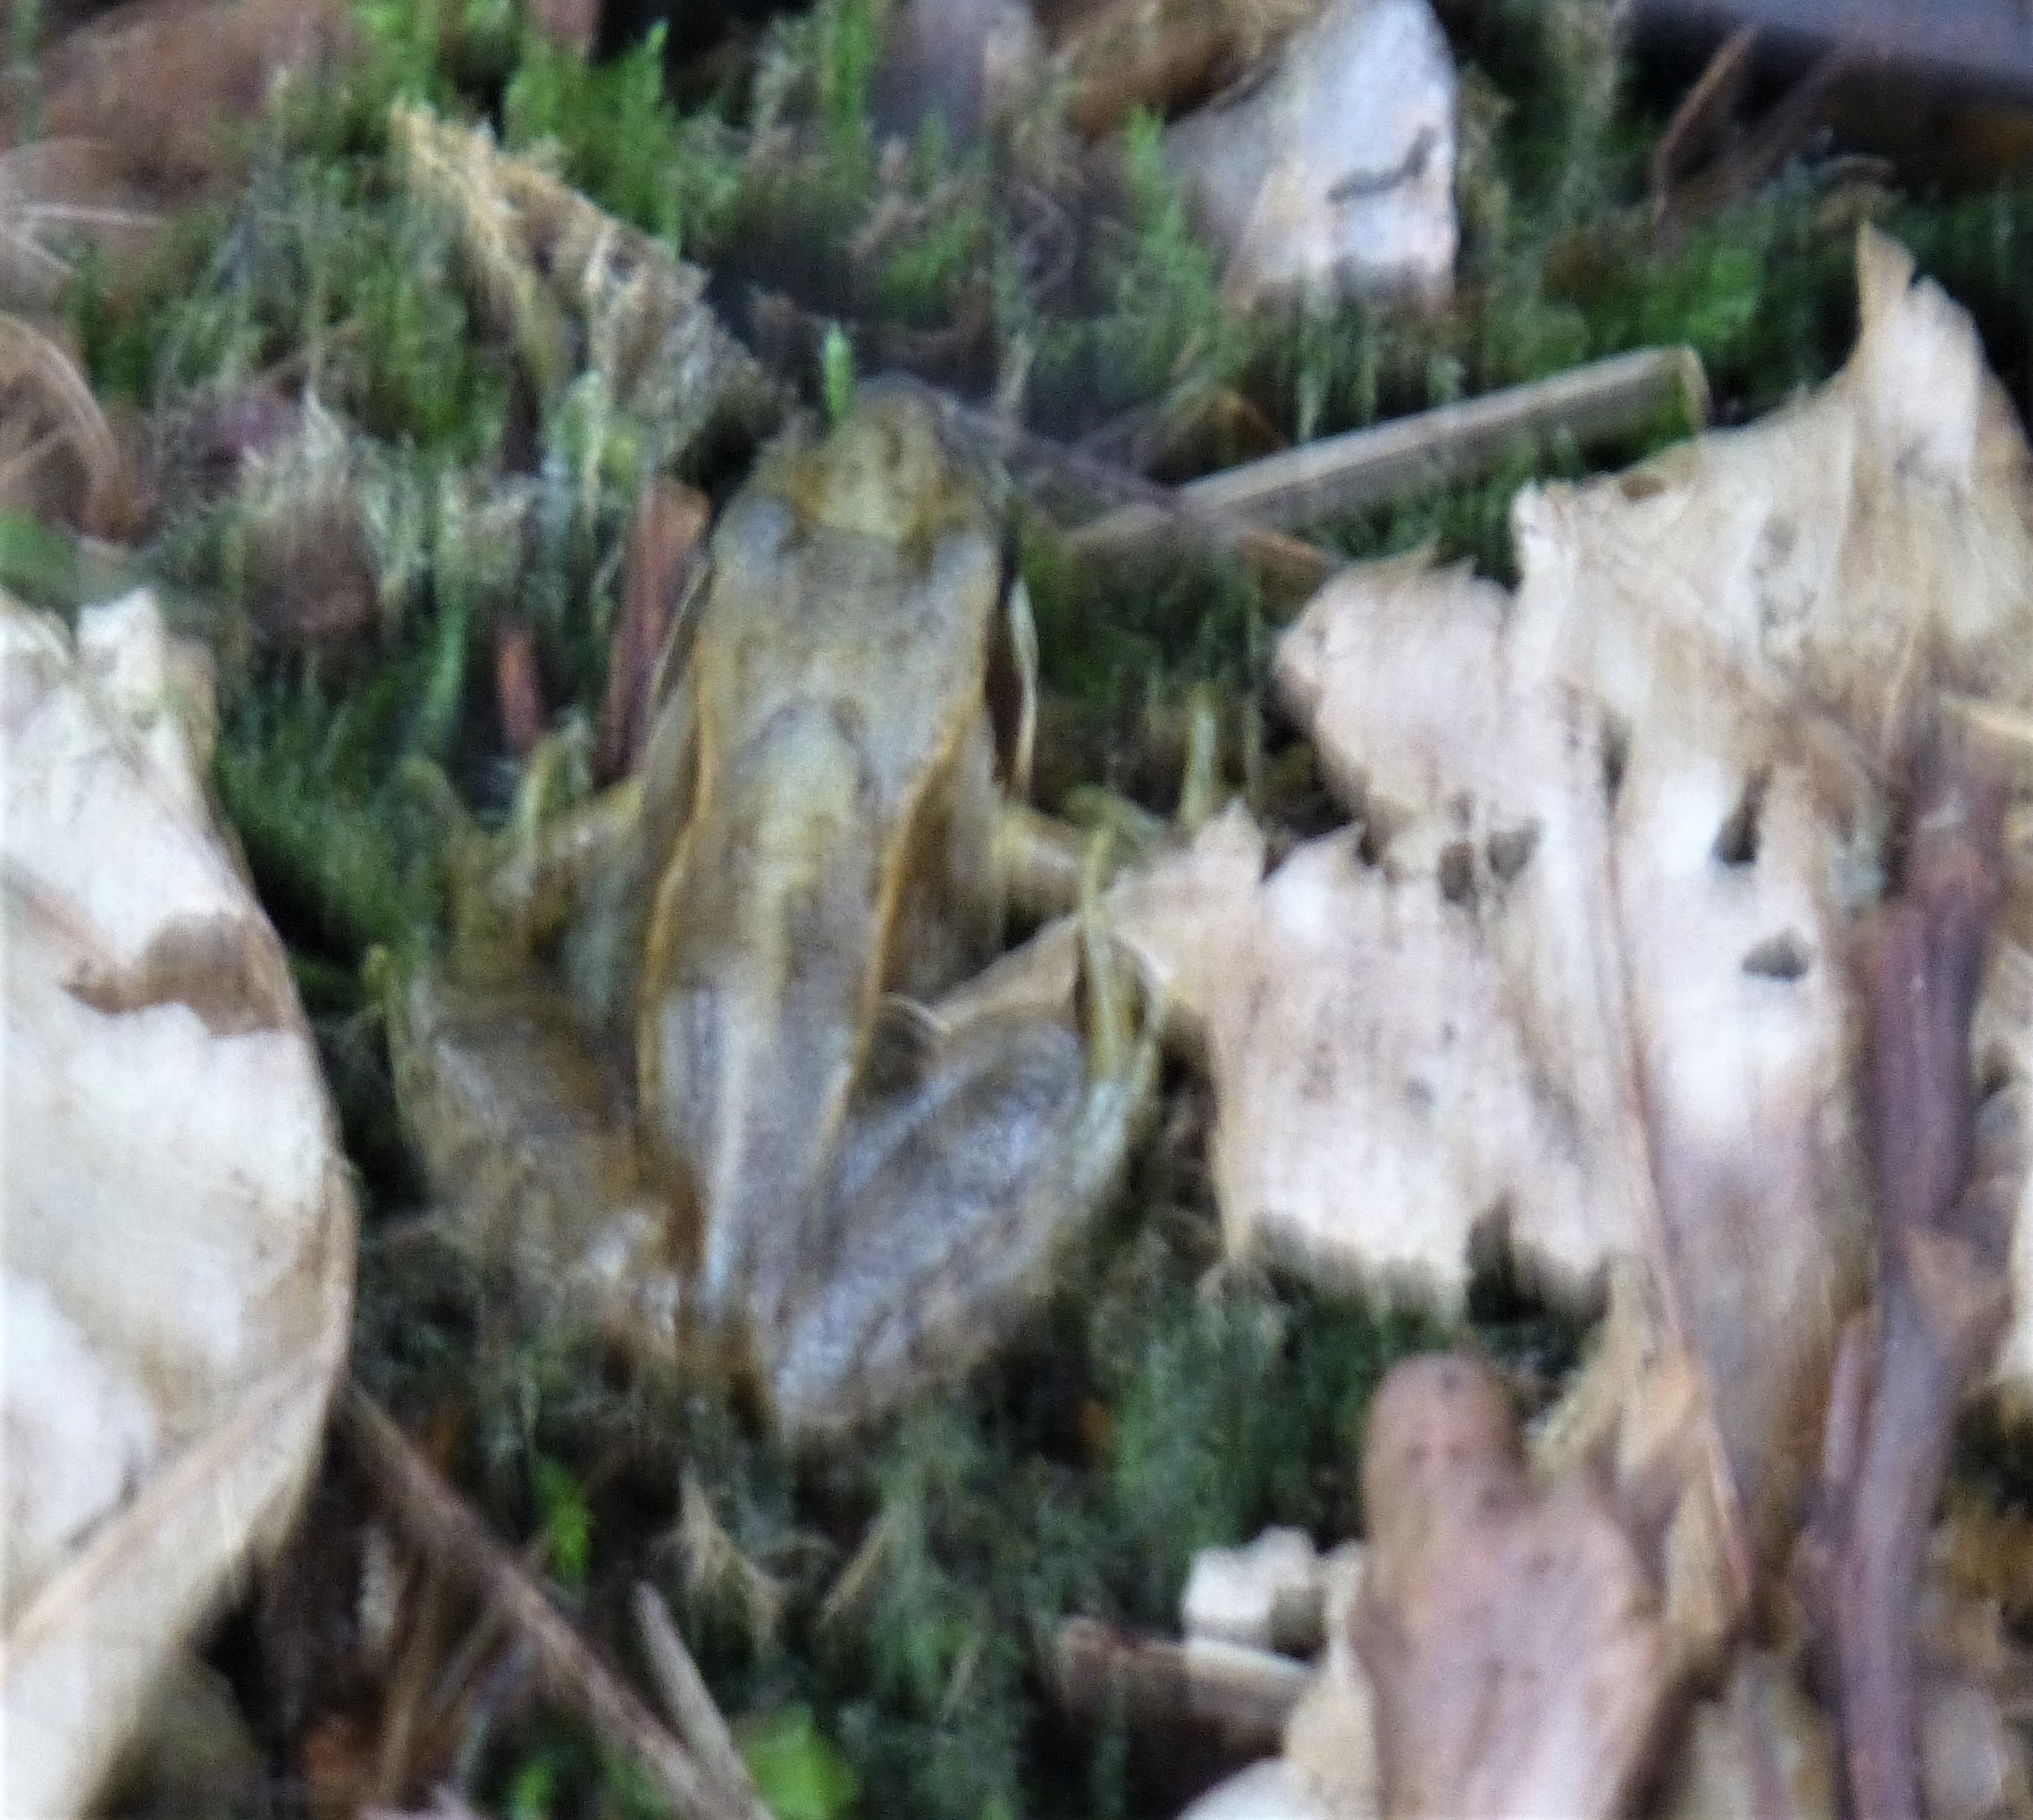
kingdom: Animalia
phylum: Chordata
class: Amphibia
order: Anura
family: Ranidae
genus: Rana
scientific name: Rana temporaria
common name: Butsnudet frø
